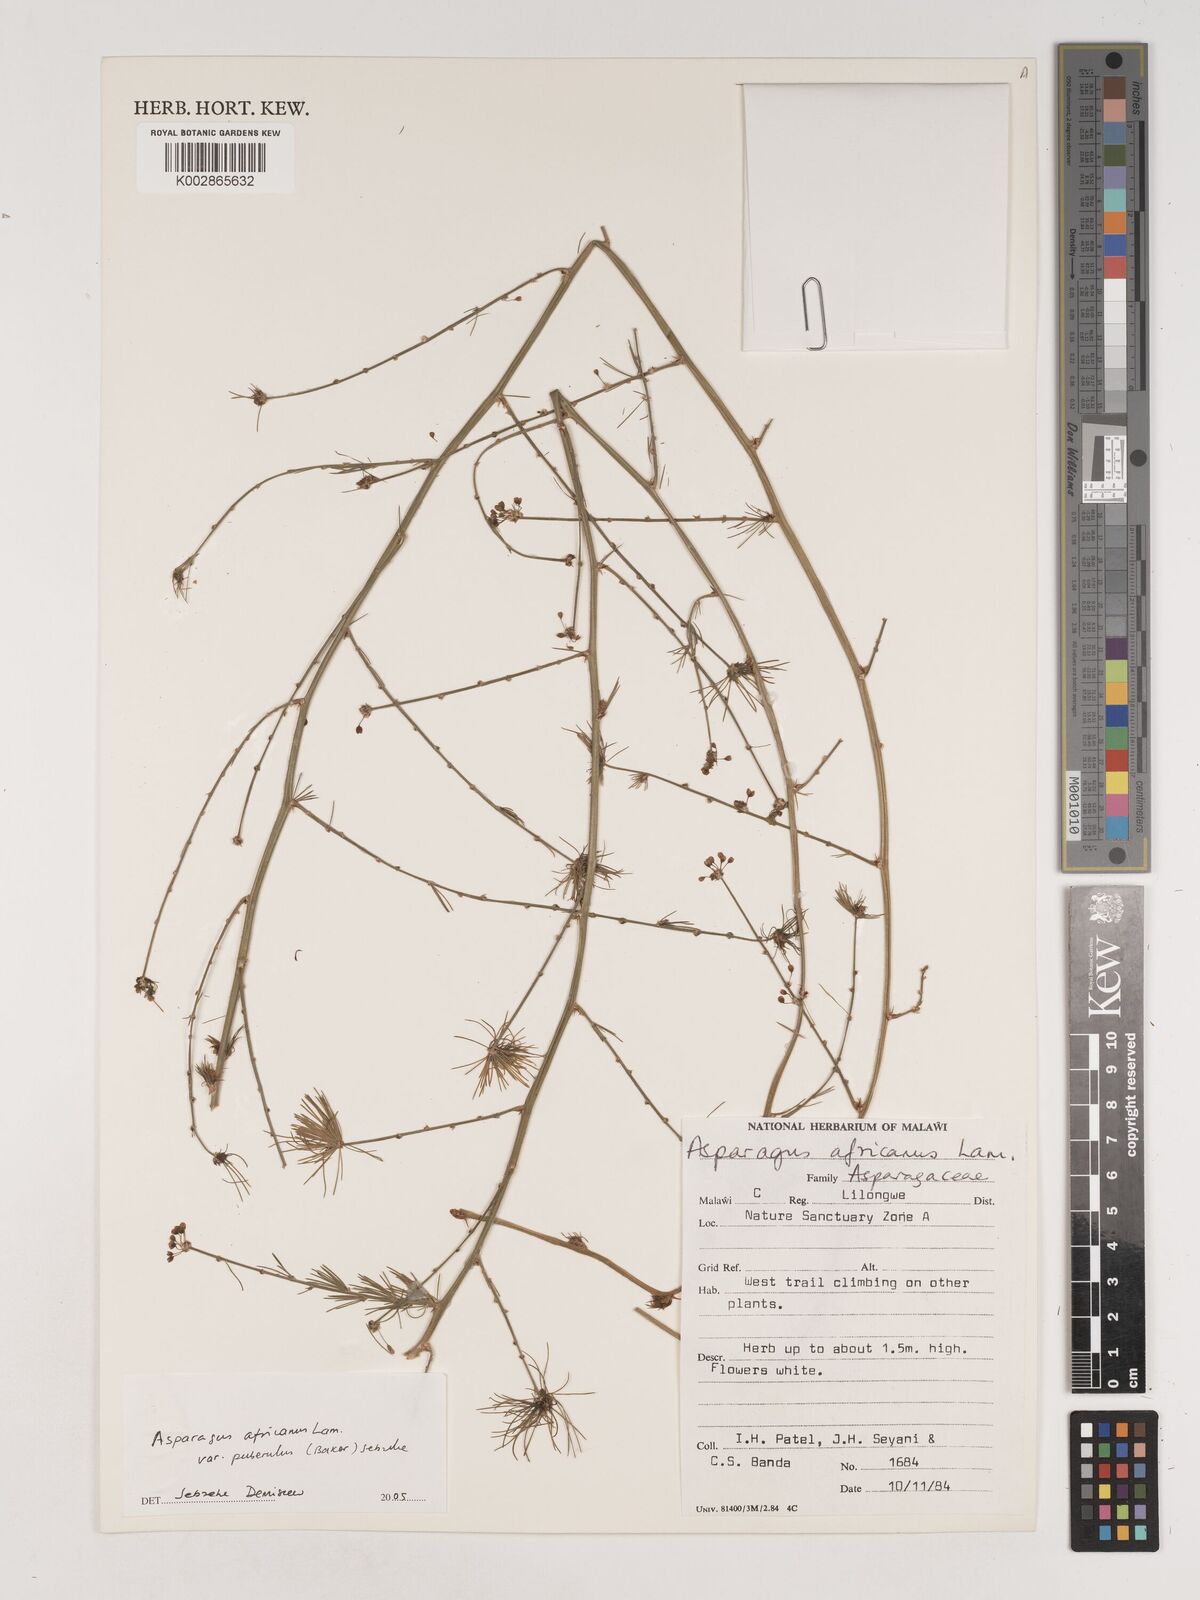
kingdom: Plantae
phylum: Tracheophyta
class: Liliopsida
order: Asparagales
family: Asparagaceae
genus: Asparagus
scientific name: Asparagus africanus
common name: Asparagus-fern
